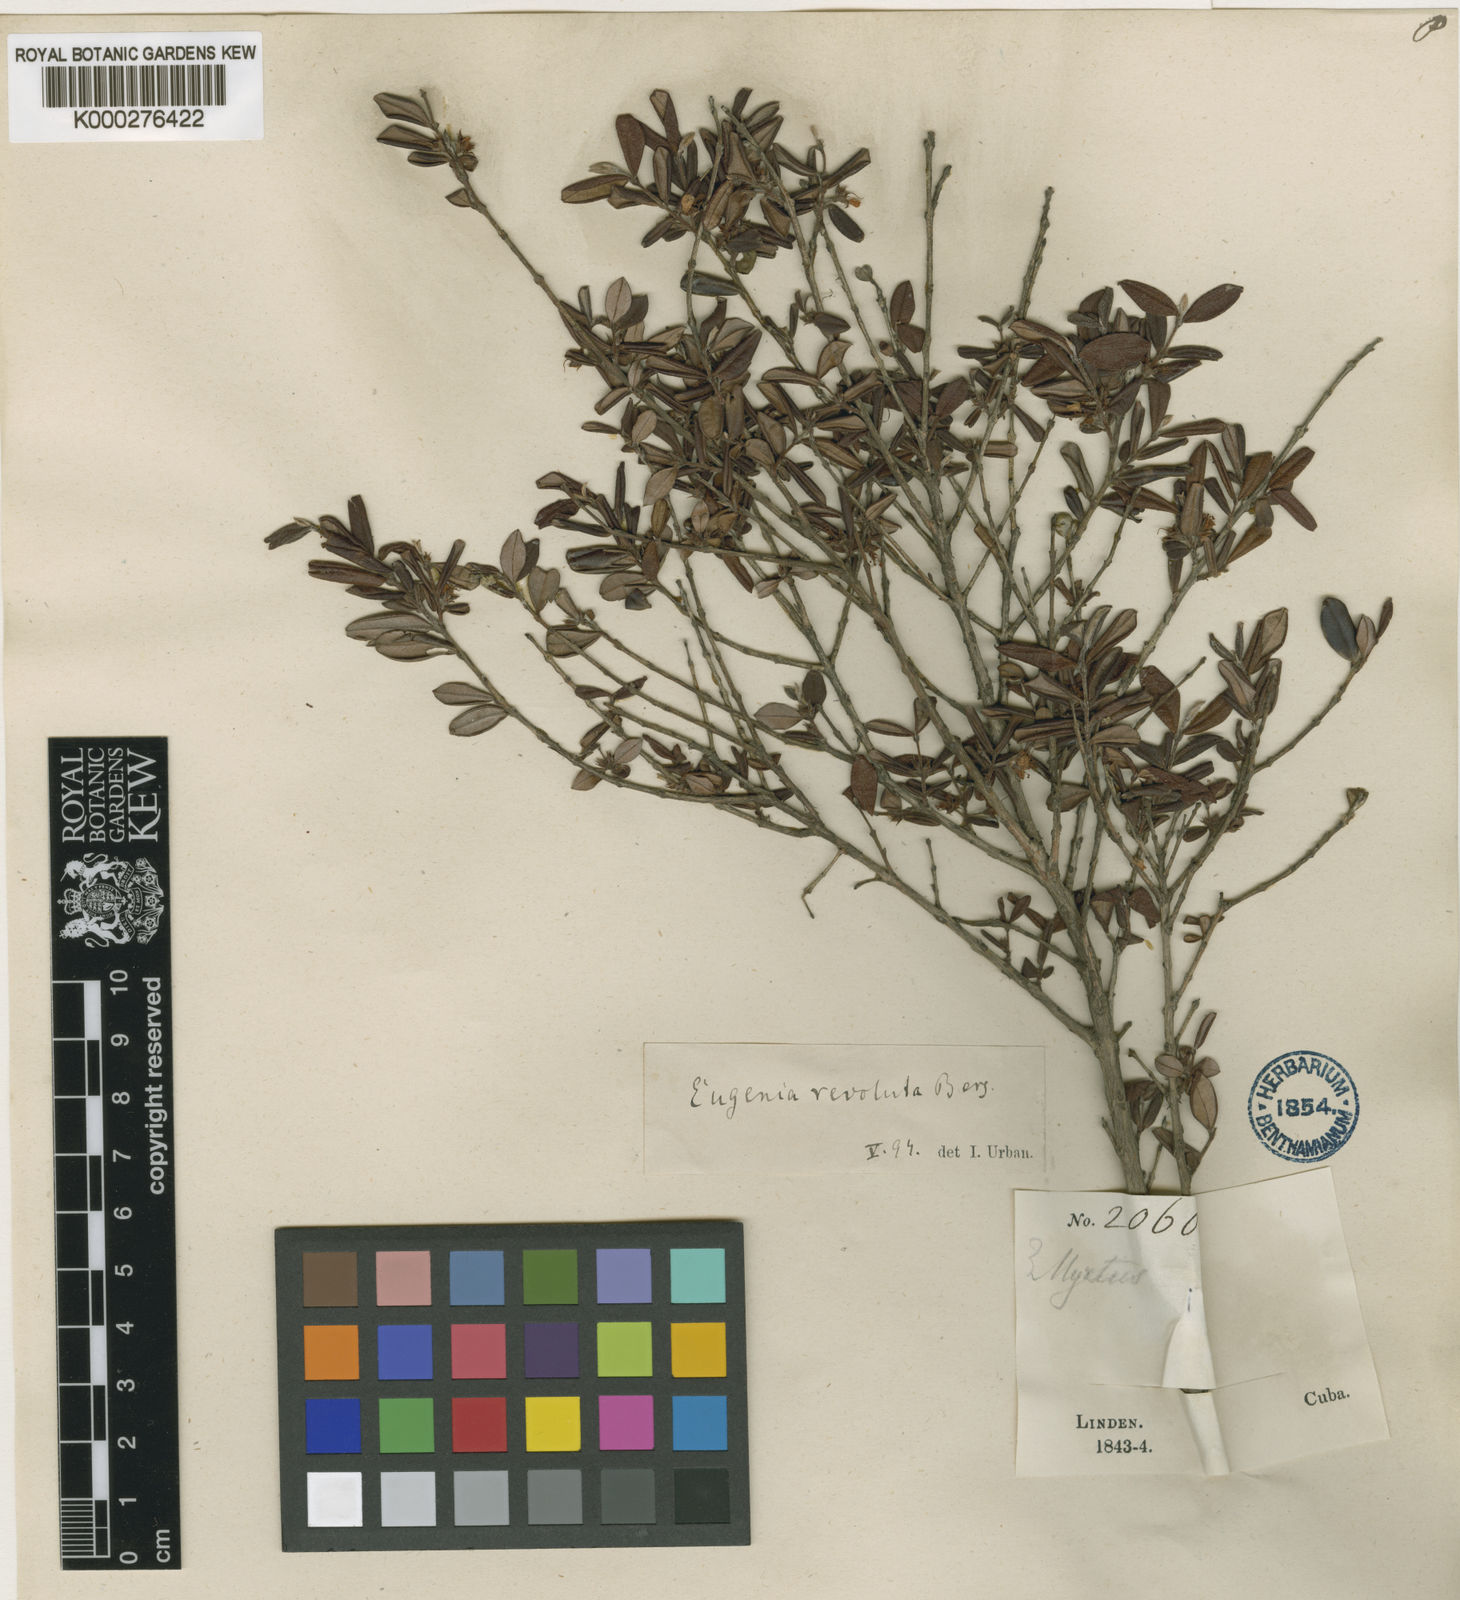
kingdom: Plantae
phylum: Tracheophyta
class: Magnoliopsida
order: Myrtales
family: Myrtaceae
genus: Eugenia
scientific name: Eugenia oxysepala
